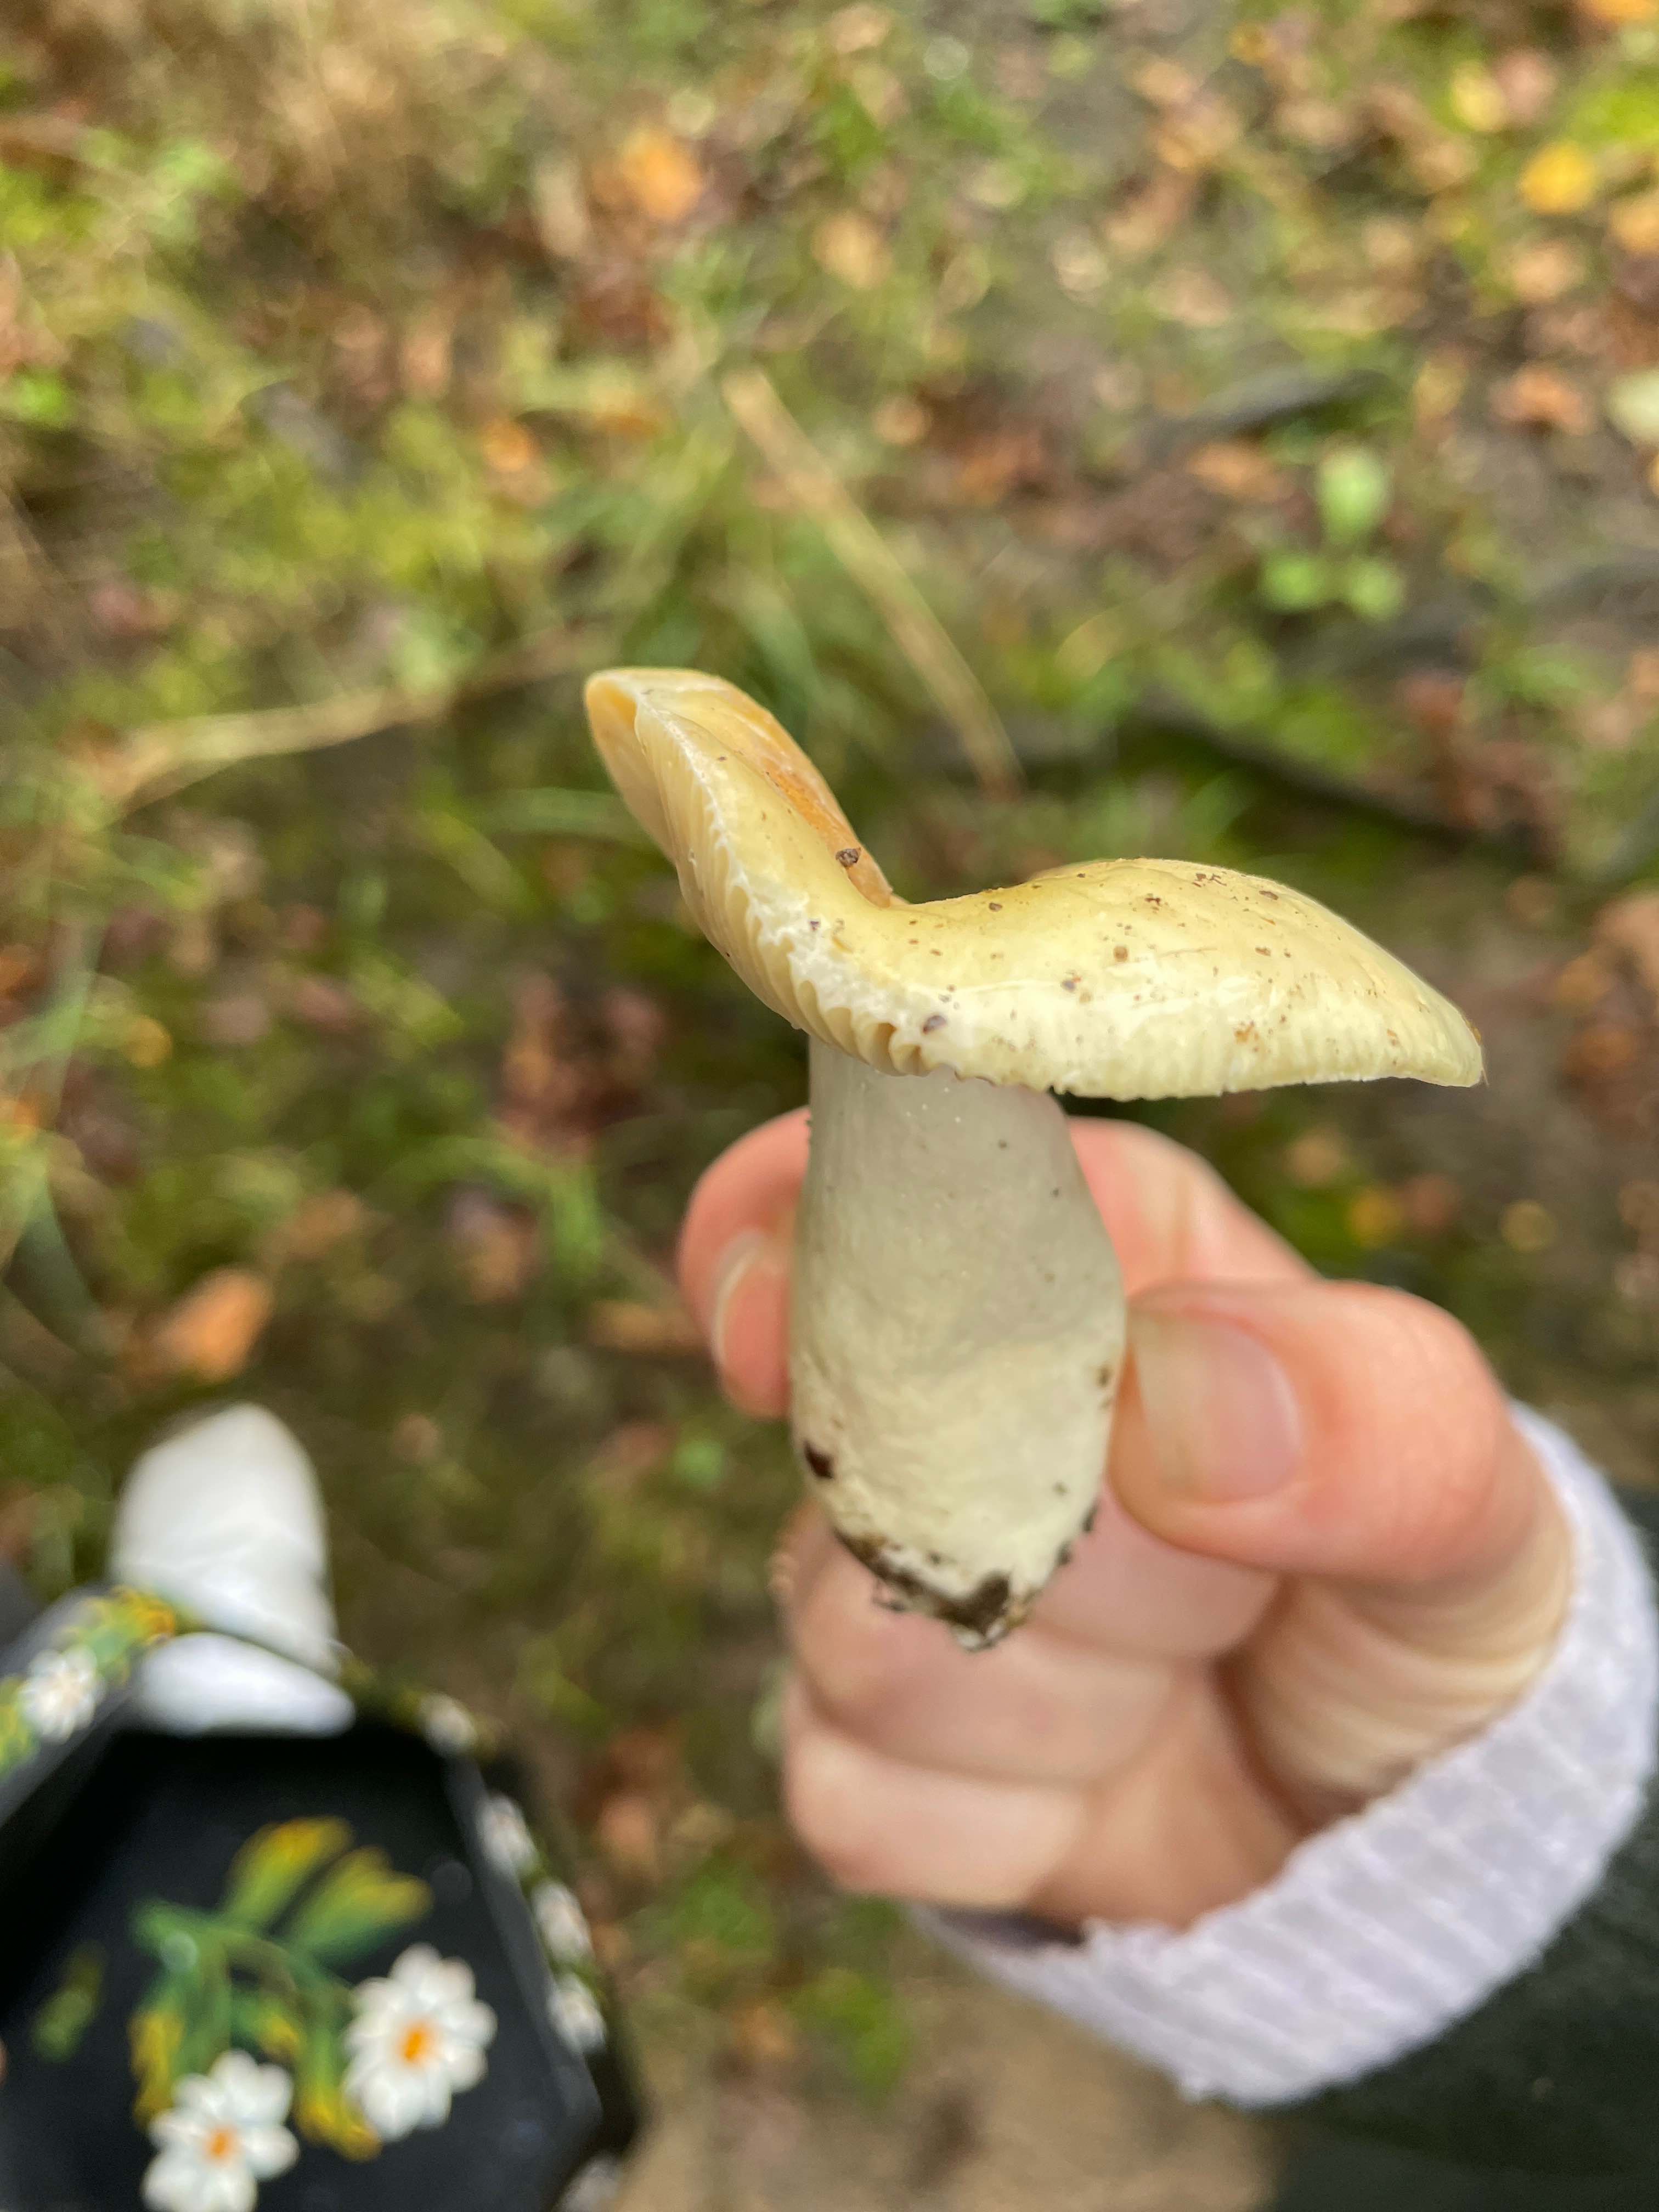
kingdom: Fungi
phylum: Basidiomycota
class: Agaricomycetes
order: Russulales
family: Russulaceae
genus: Russula
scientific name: Russula ochroleuca
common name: okkergul skørhat
